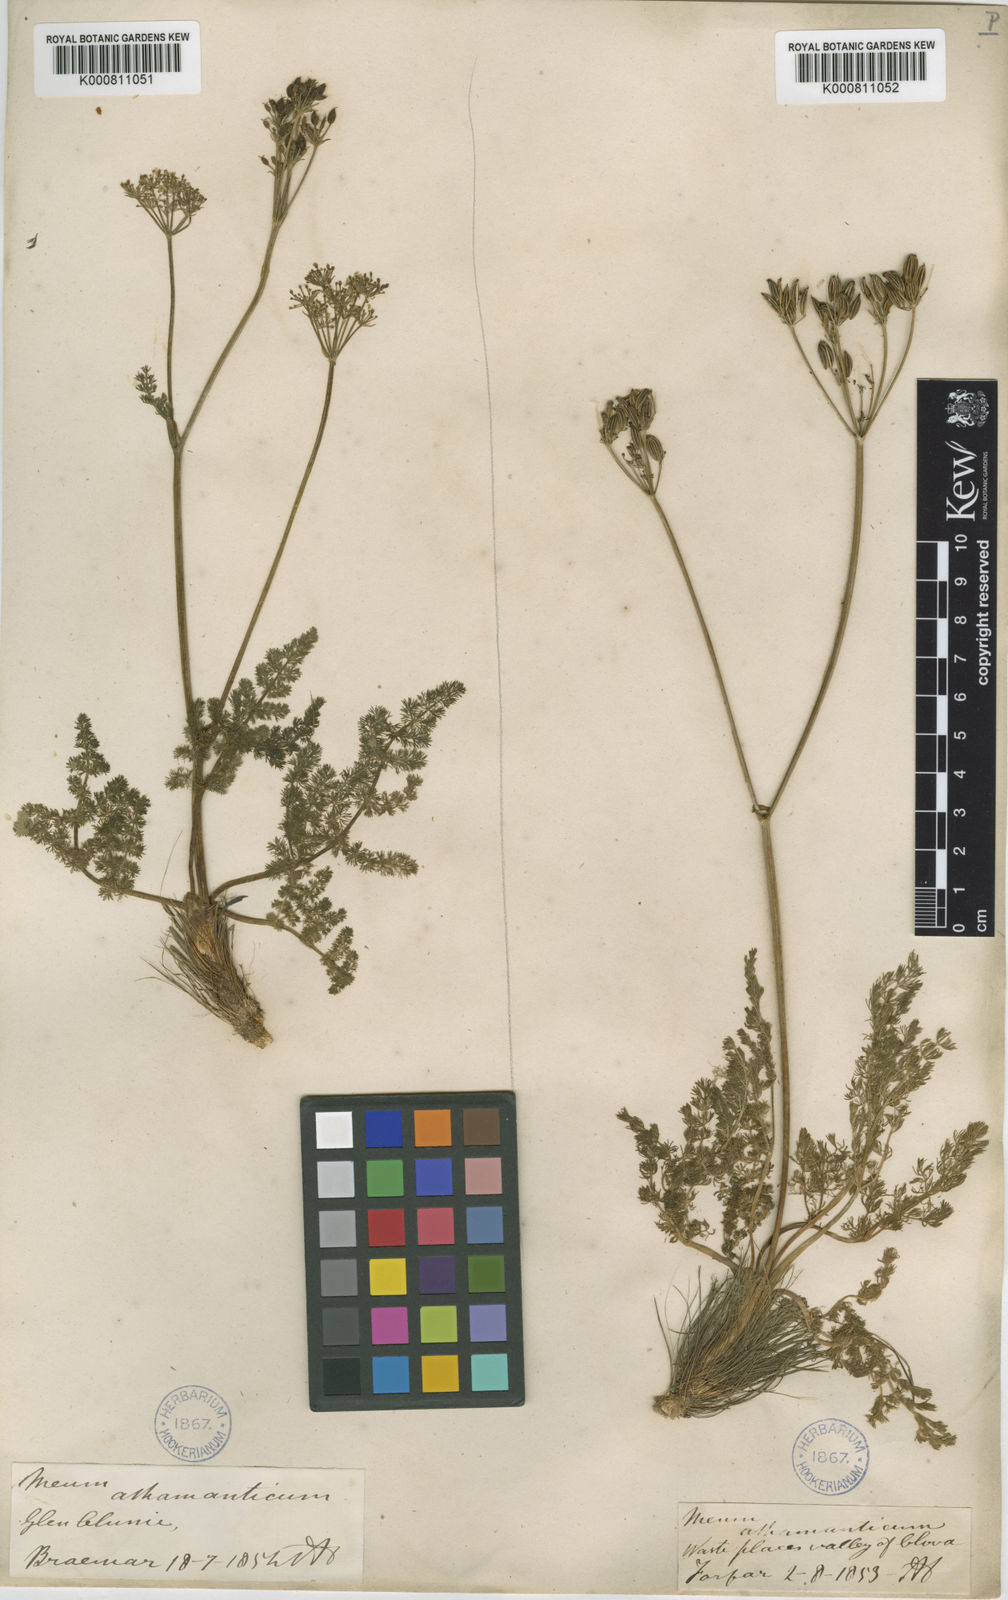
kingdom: Plantae
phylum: Tracheophyta
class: Magnoliopsida
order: Apiales
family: Apiaceae
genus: Meum
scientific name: Meum athamanticum
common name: Spignel
